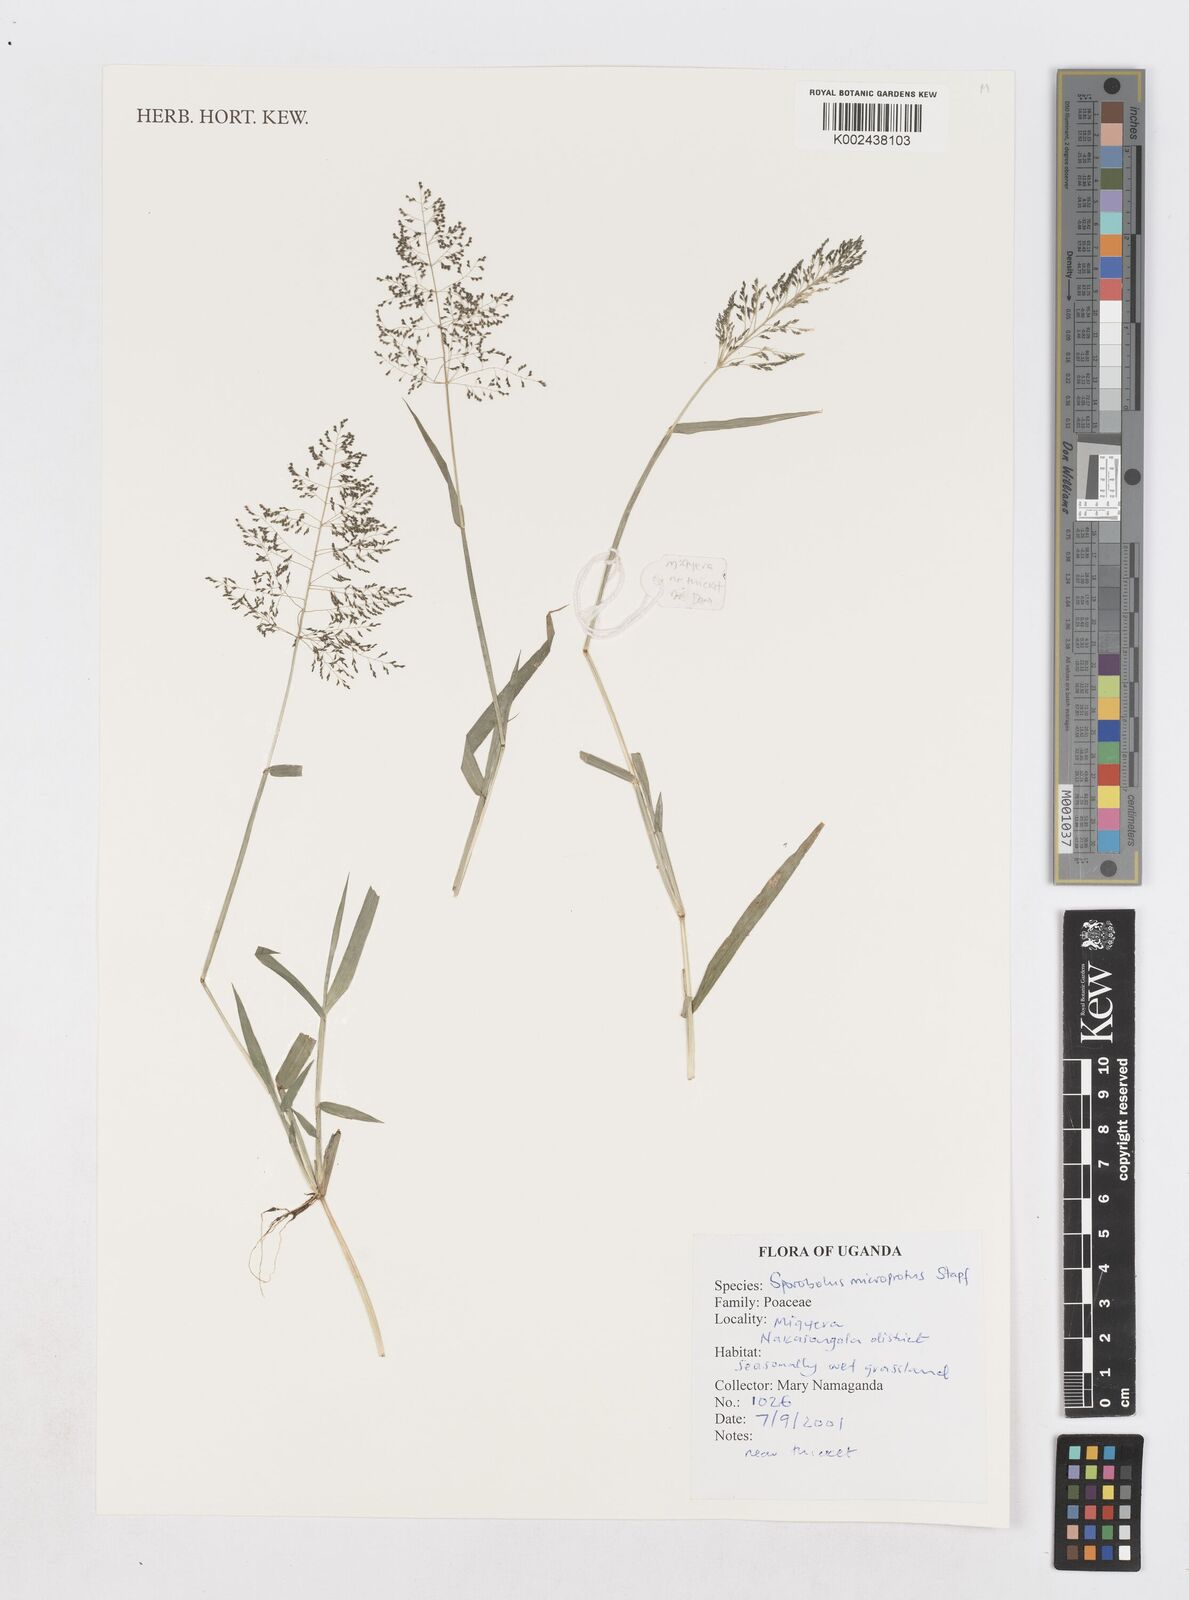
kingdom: Plantae
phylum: Tracheophyta
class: Liliopsida
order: Poales
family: Poaceae
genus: Sporobolus
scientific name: Sporobolus microprotus
